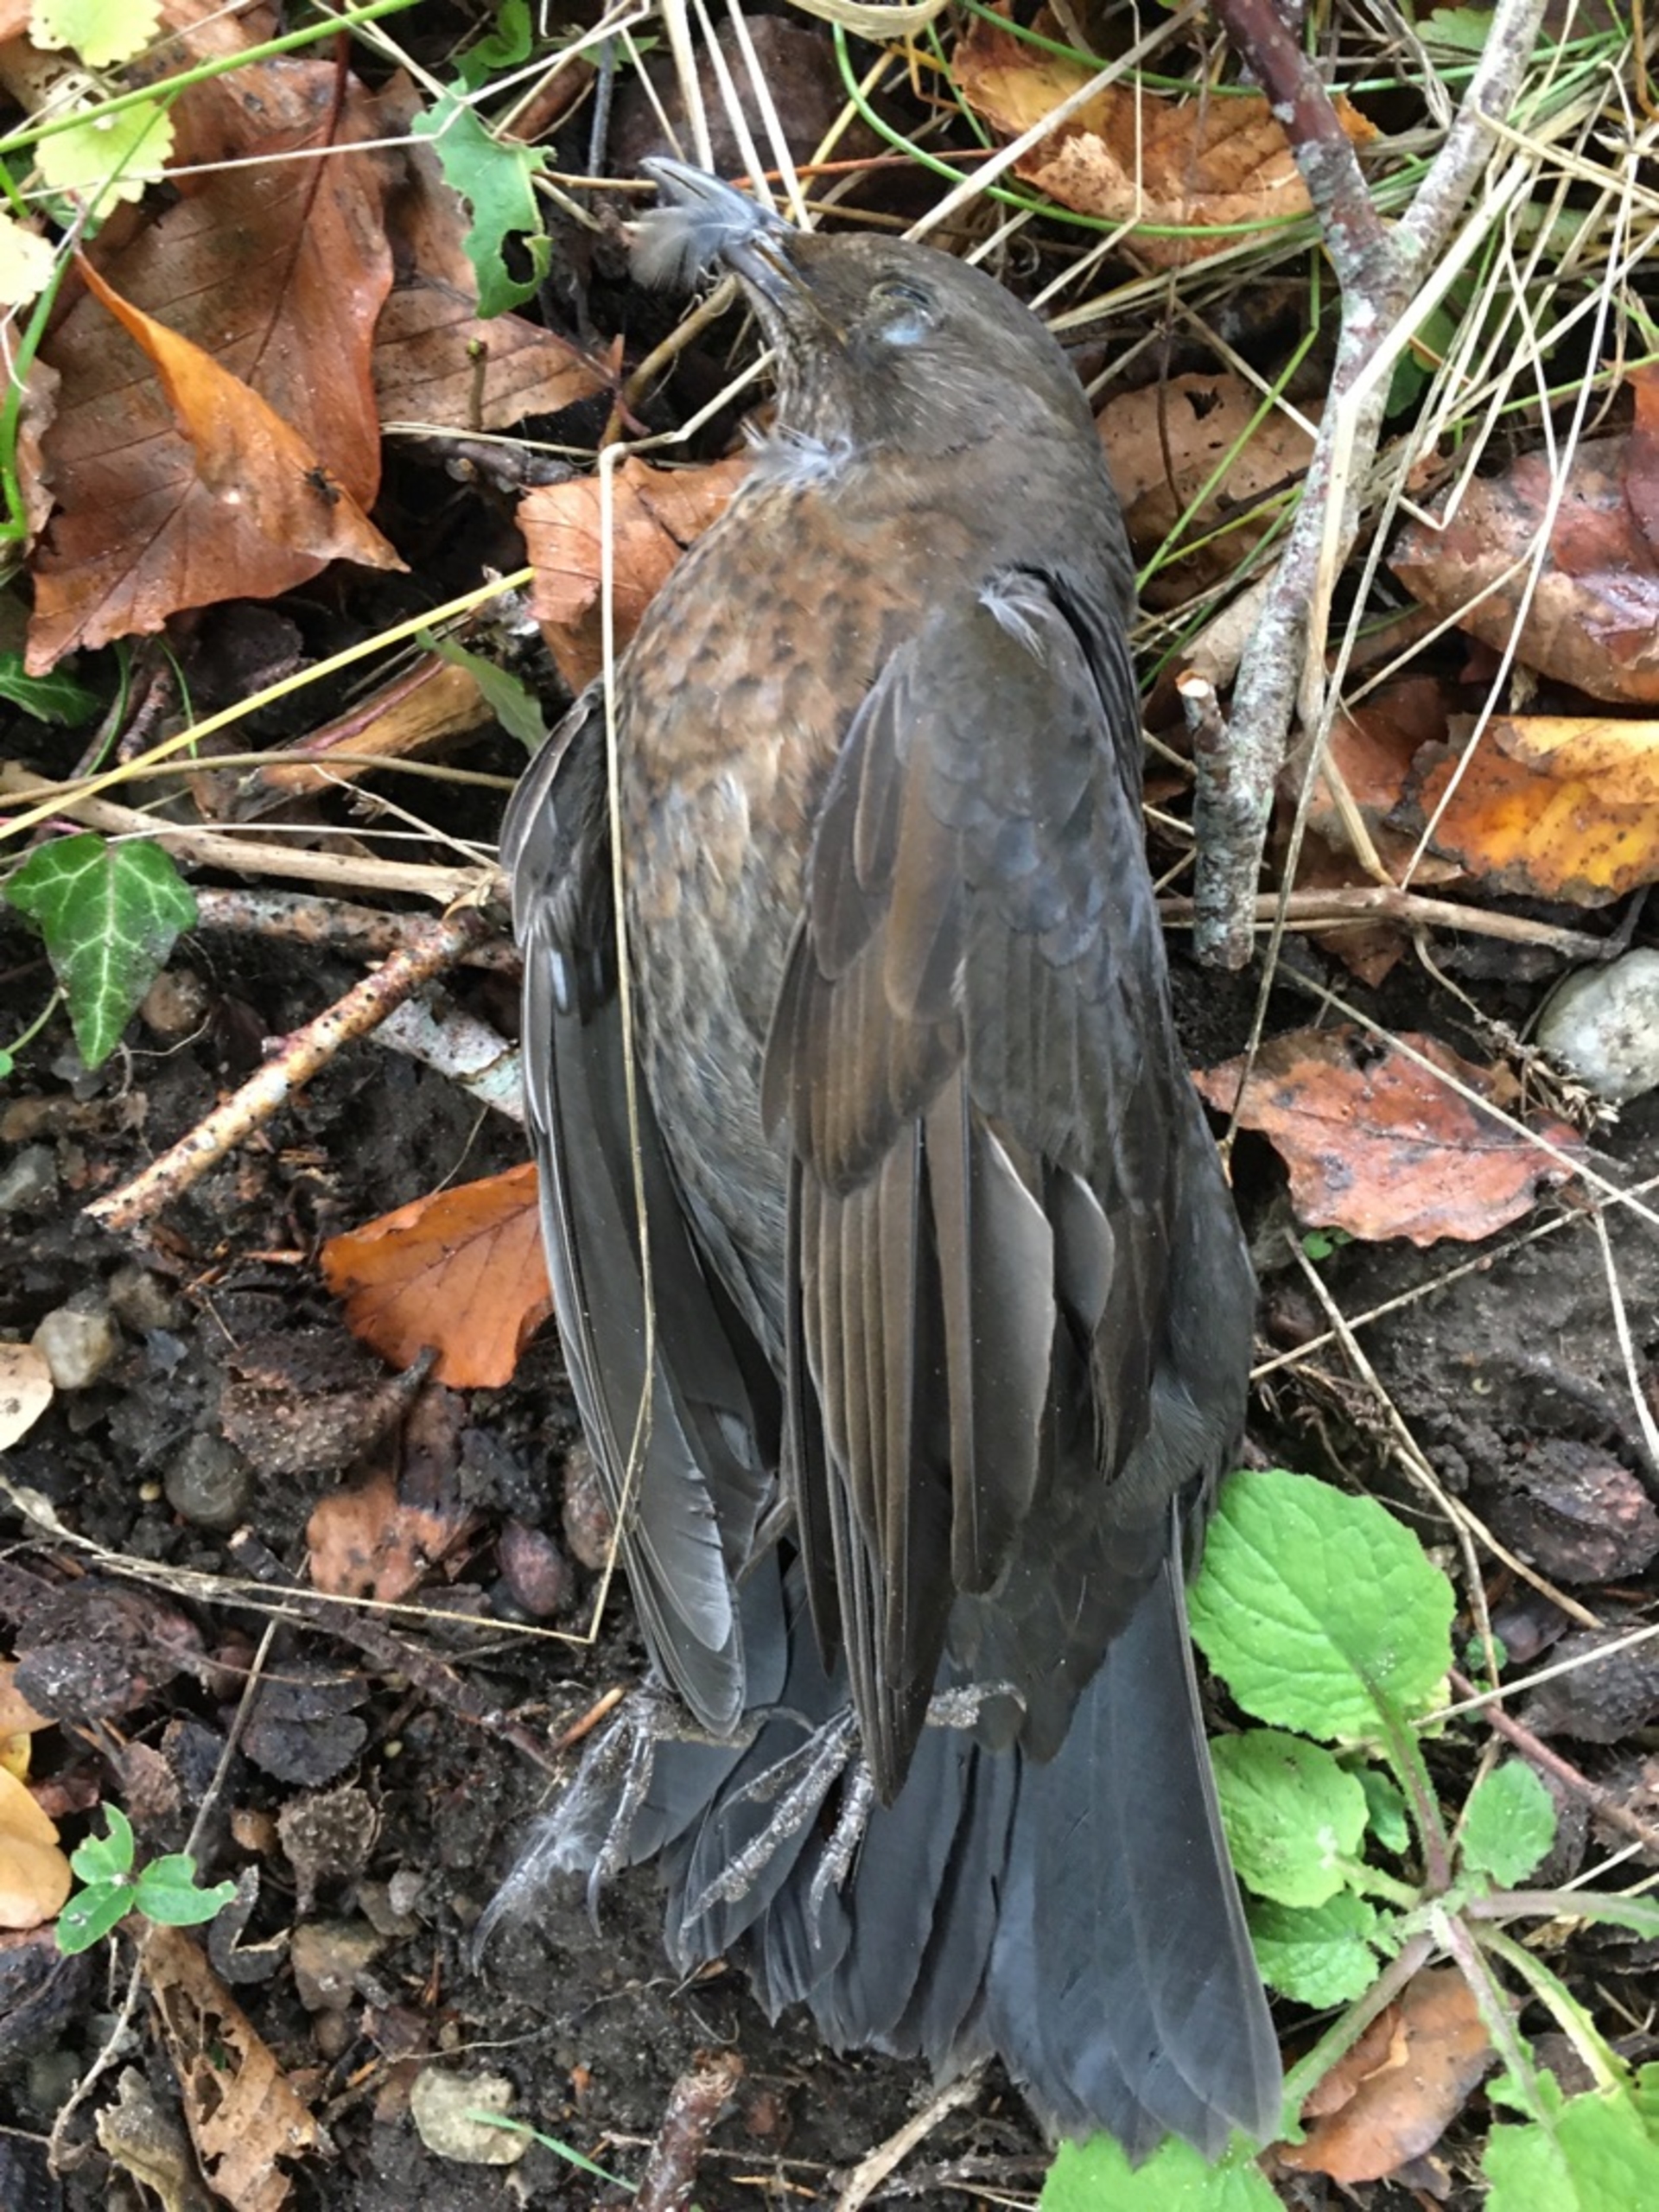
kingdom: Animalia
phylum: Chordata
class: Aves
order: Passeriformes
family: Turdidae
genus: Turdus
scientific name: Turdus merula
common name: Solsort
